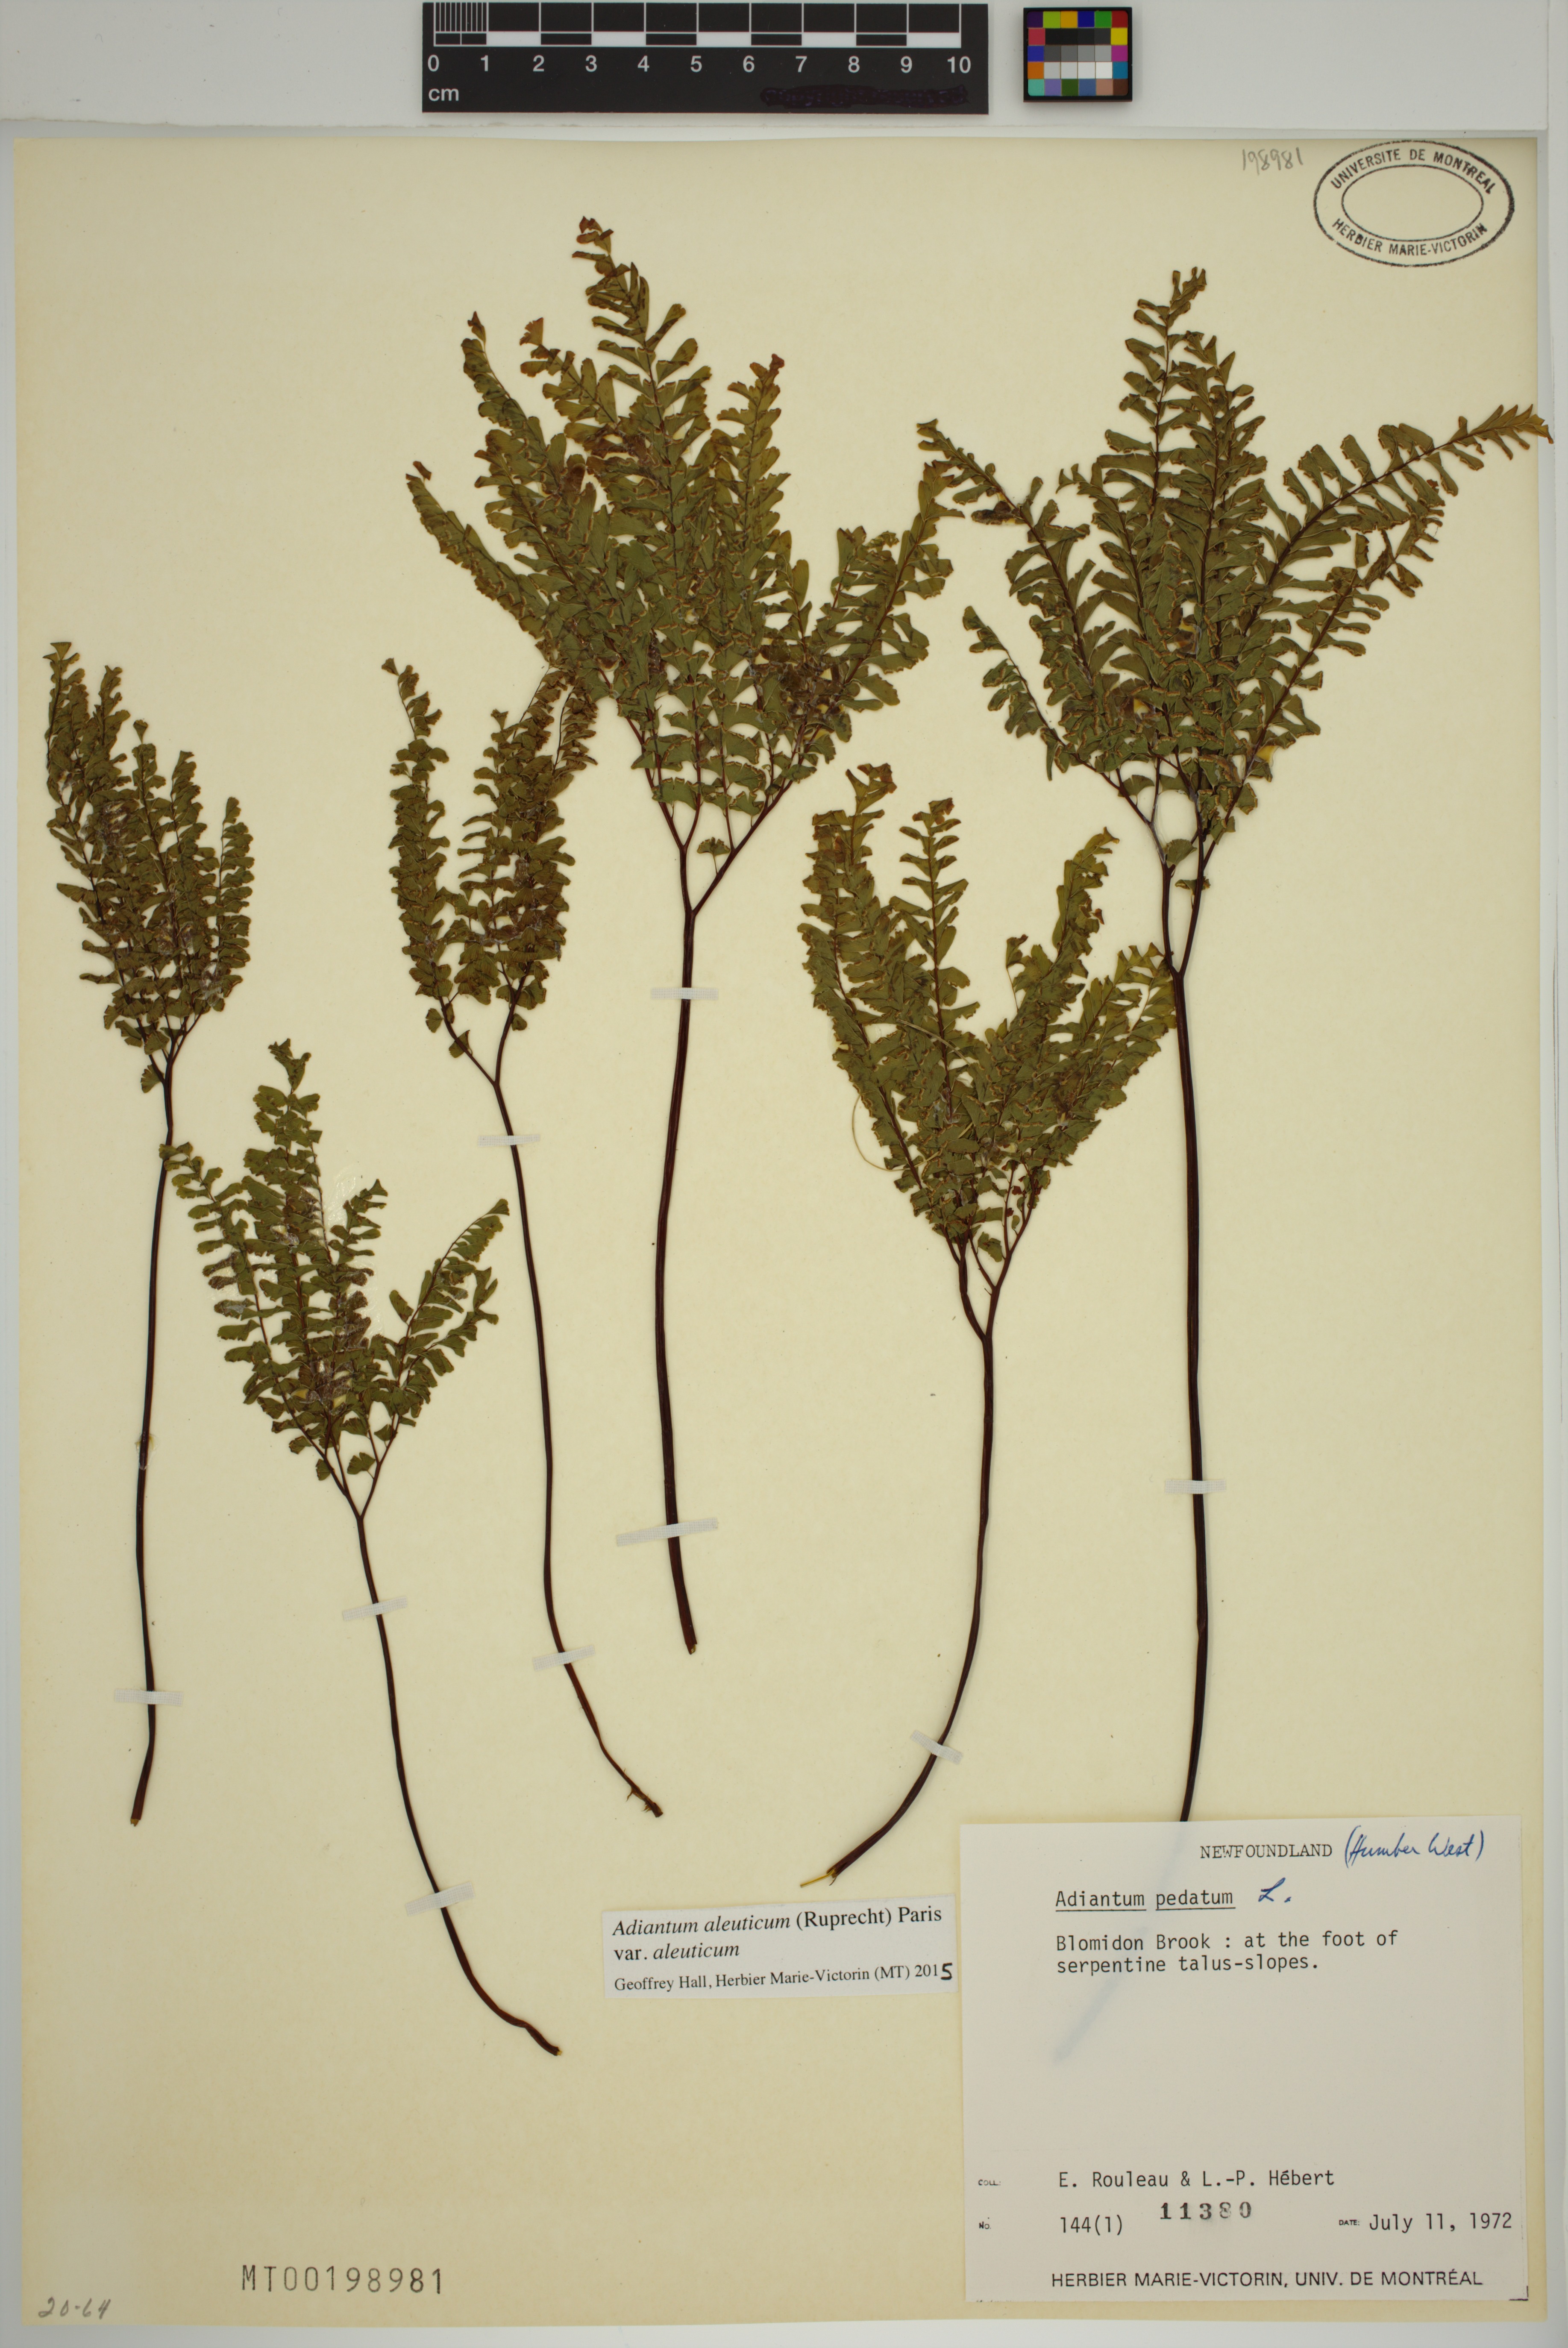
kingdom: Plantae
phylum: Tracheophyta
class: Polypodiopsida
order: Polypodiales
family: Pteridaceae
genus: Adiantum
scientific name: Adiantum aleuticum
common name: Aleutian maidenhair fern
